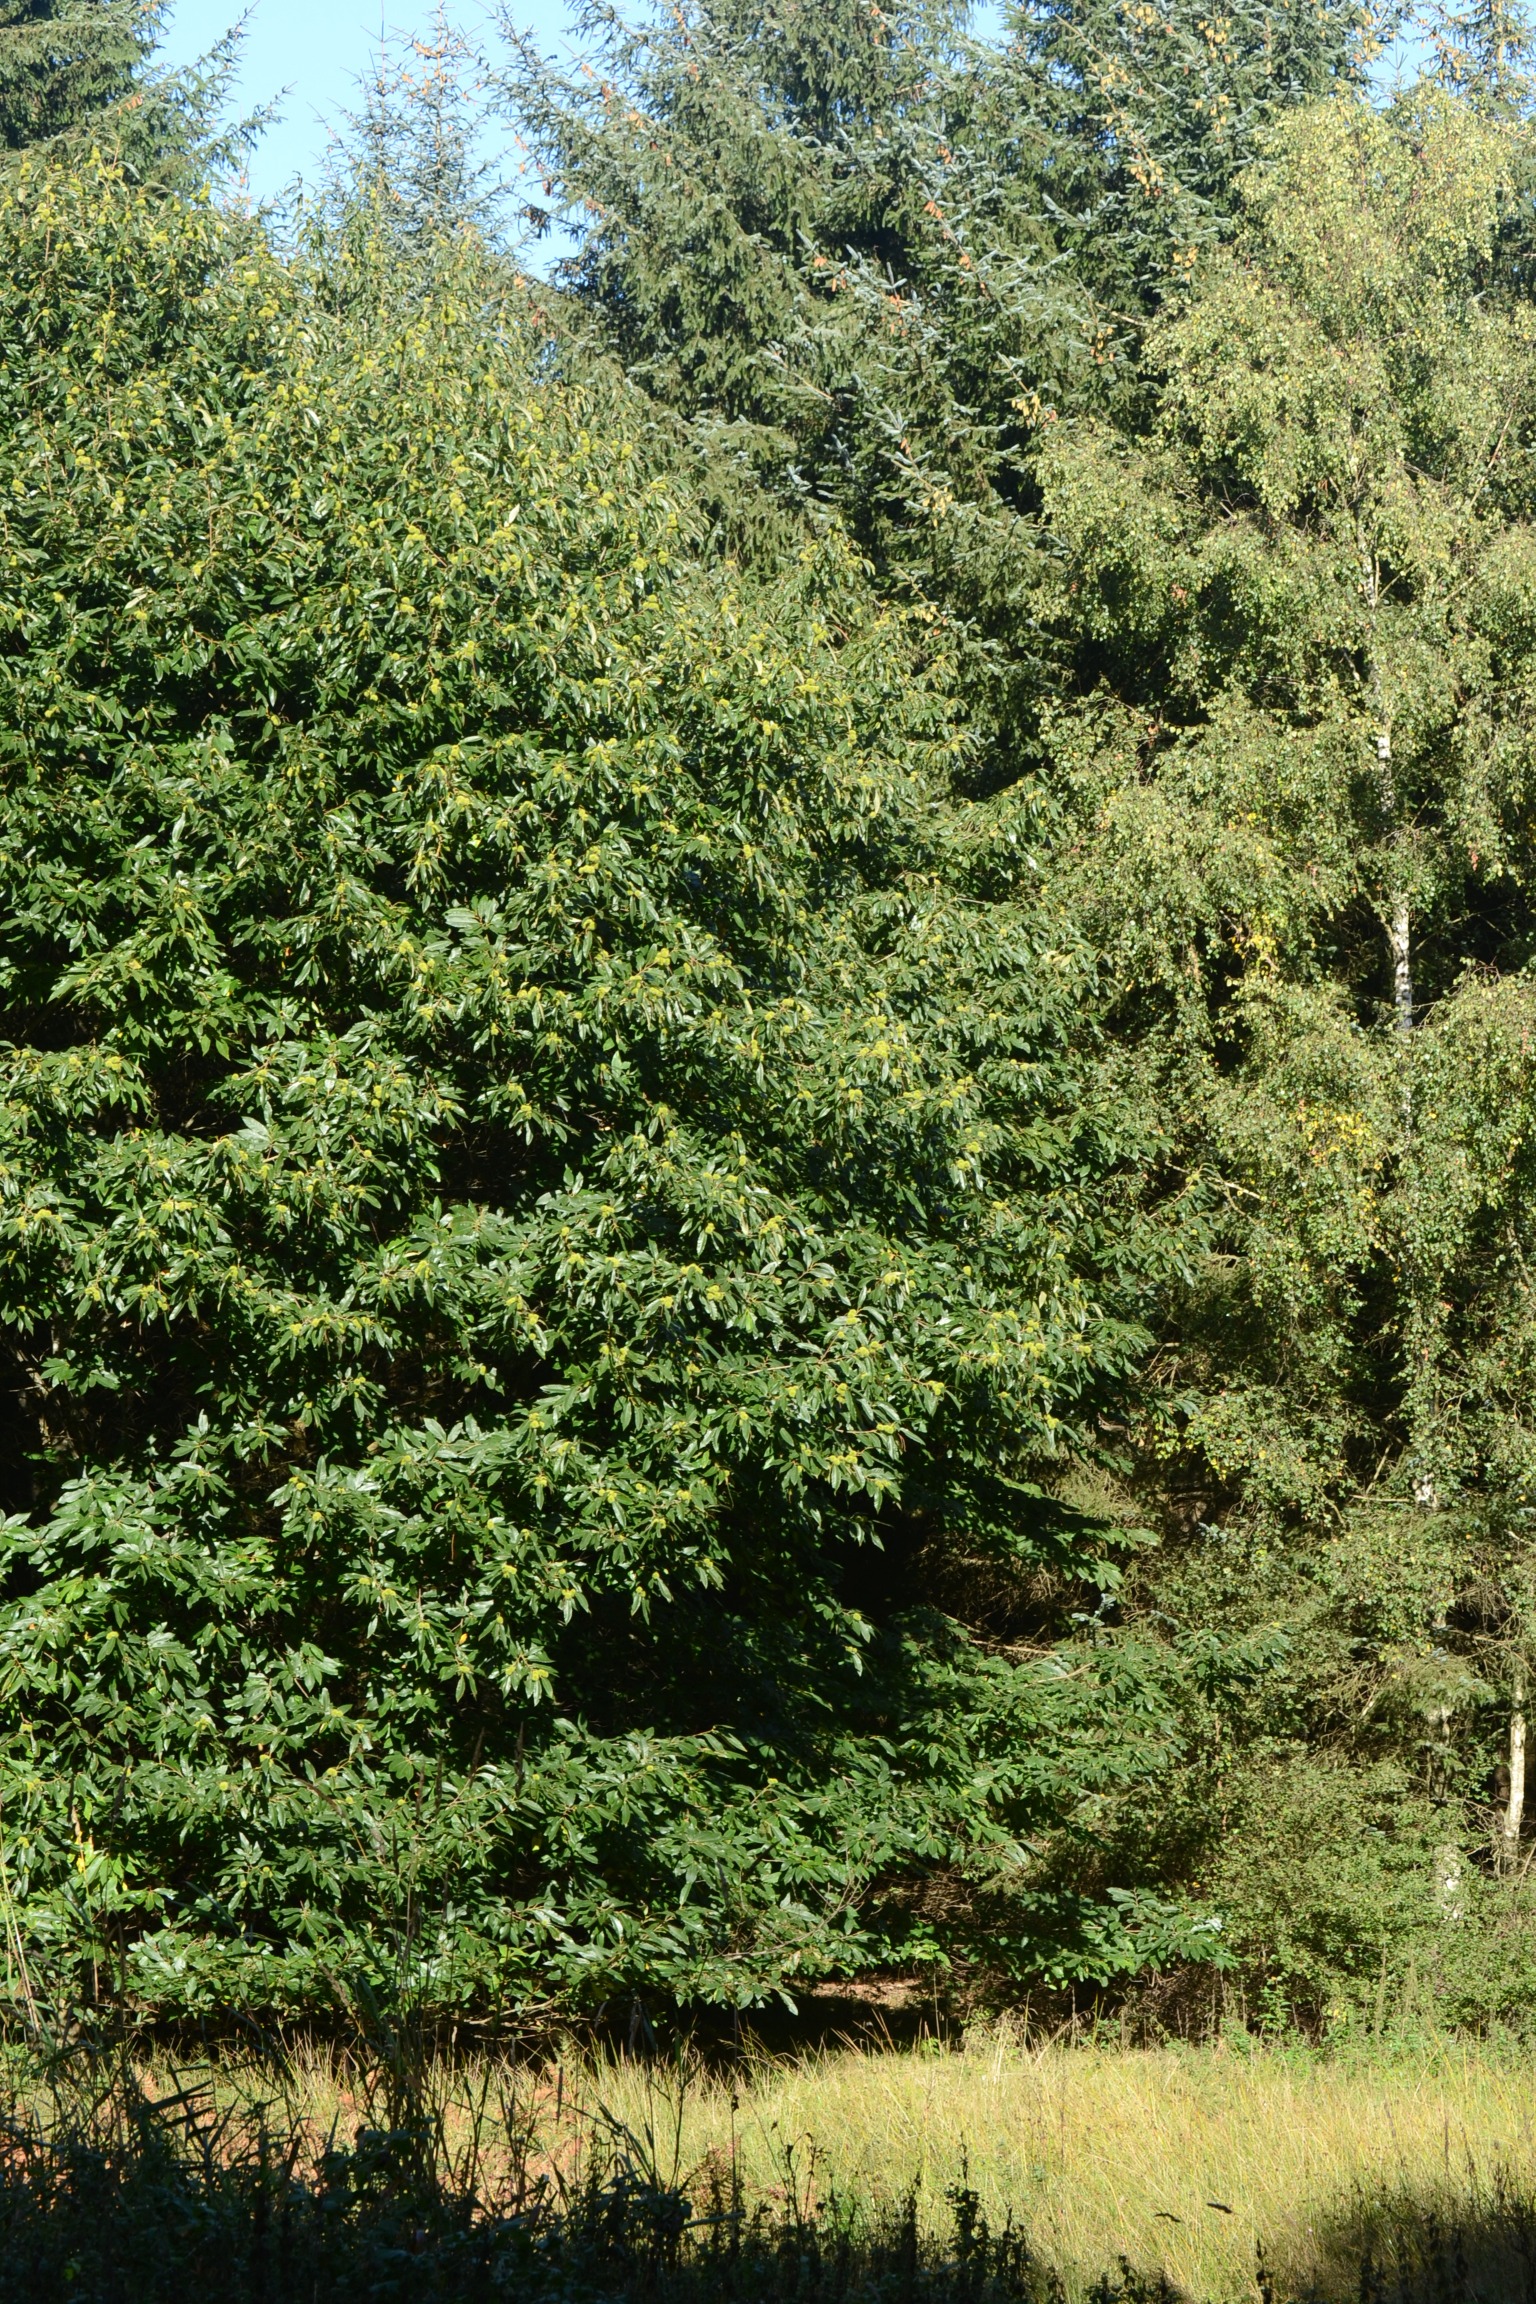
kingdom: Plantae
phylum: Tracheophyta
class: Magnoliopsida
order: Fagales
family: Fagaceae
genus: Castanea
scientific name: Castanea sativa
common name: Ægte kastanie
